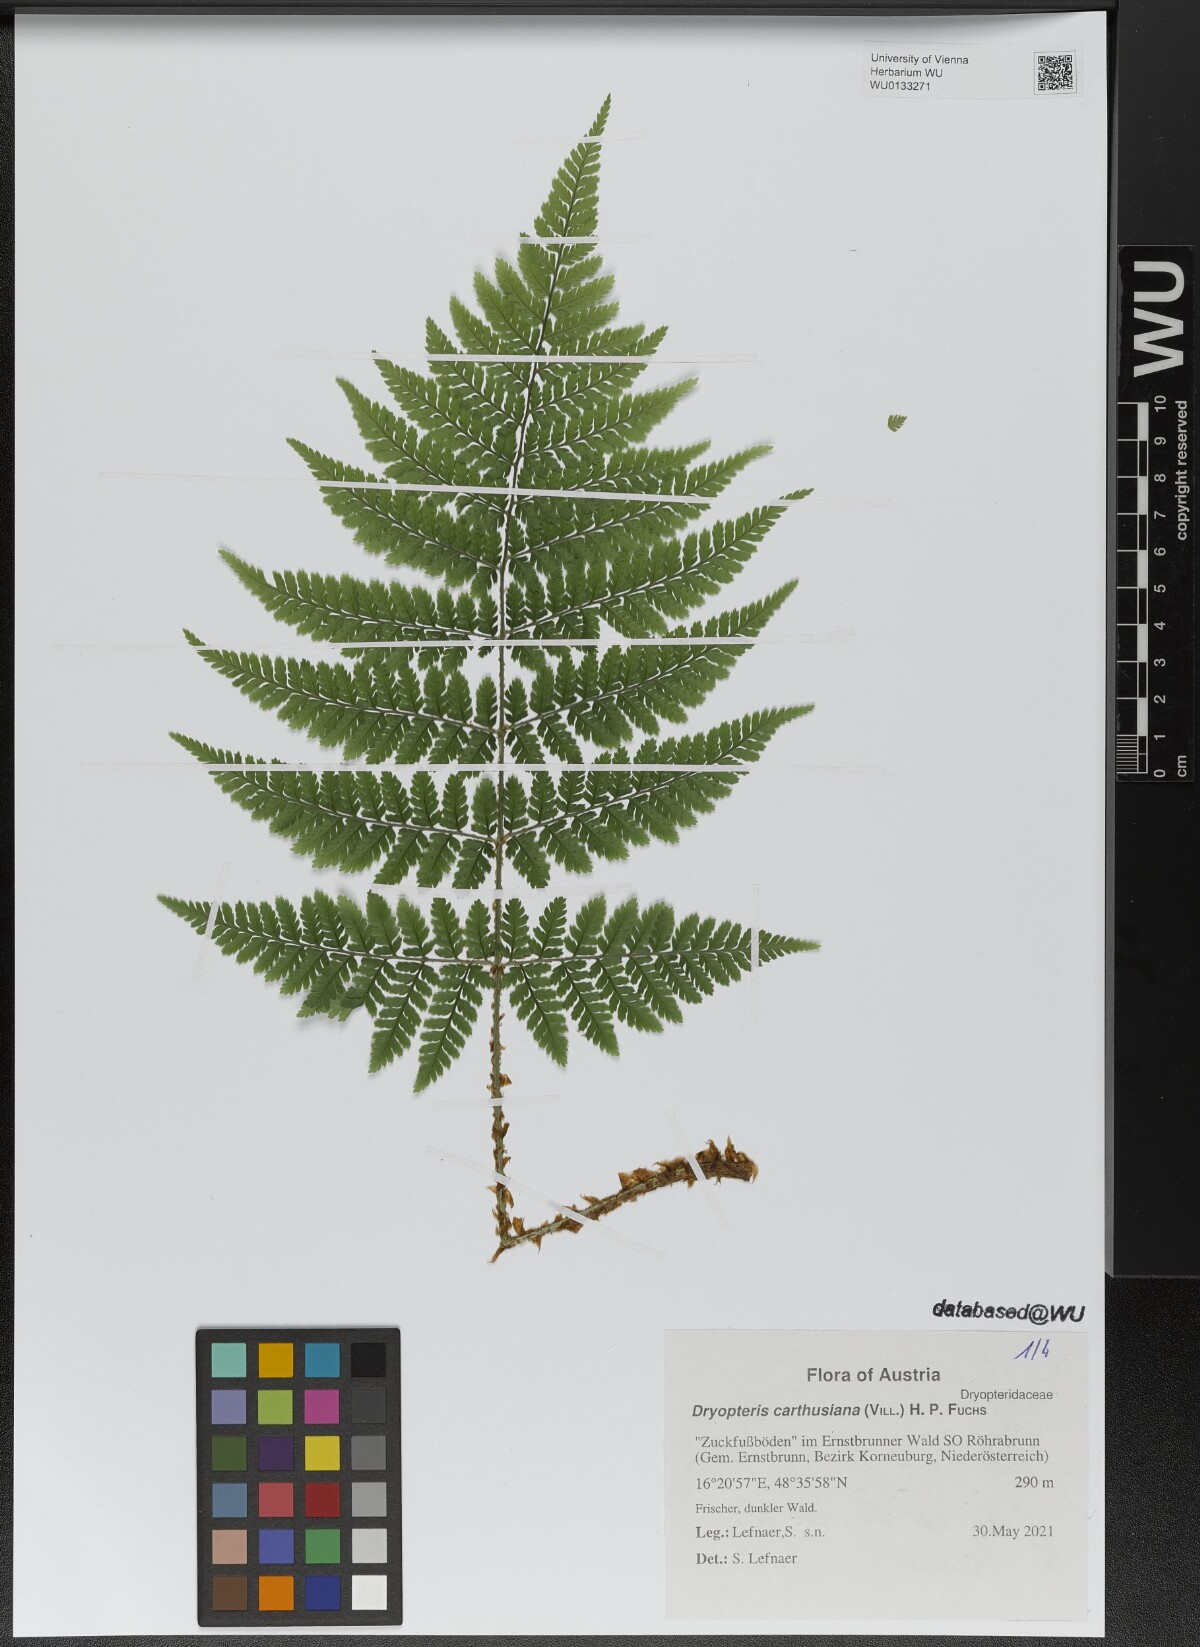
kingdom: Plantae
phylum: Tracheophyta
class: Polypodiopsida
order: Polypodiales
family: Dryopteridaceae
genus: Dryopteris
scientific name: Dryopteris carthusiana
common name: Narrow buckler-fern
